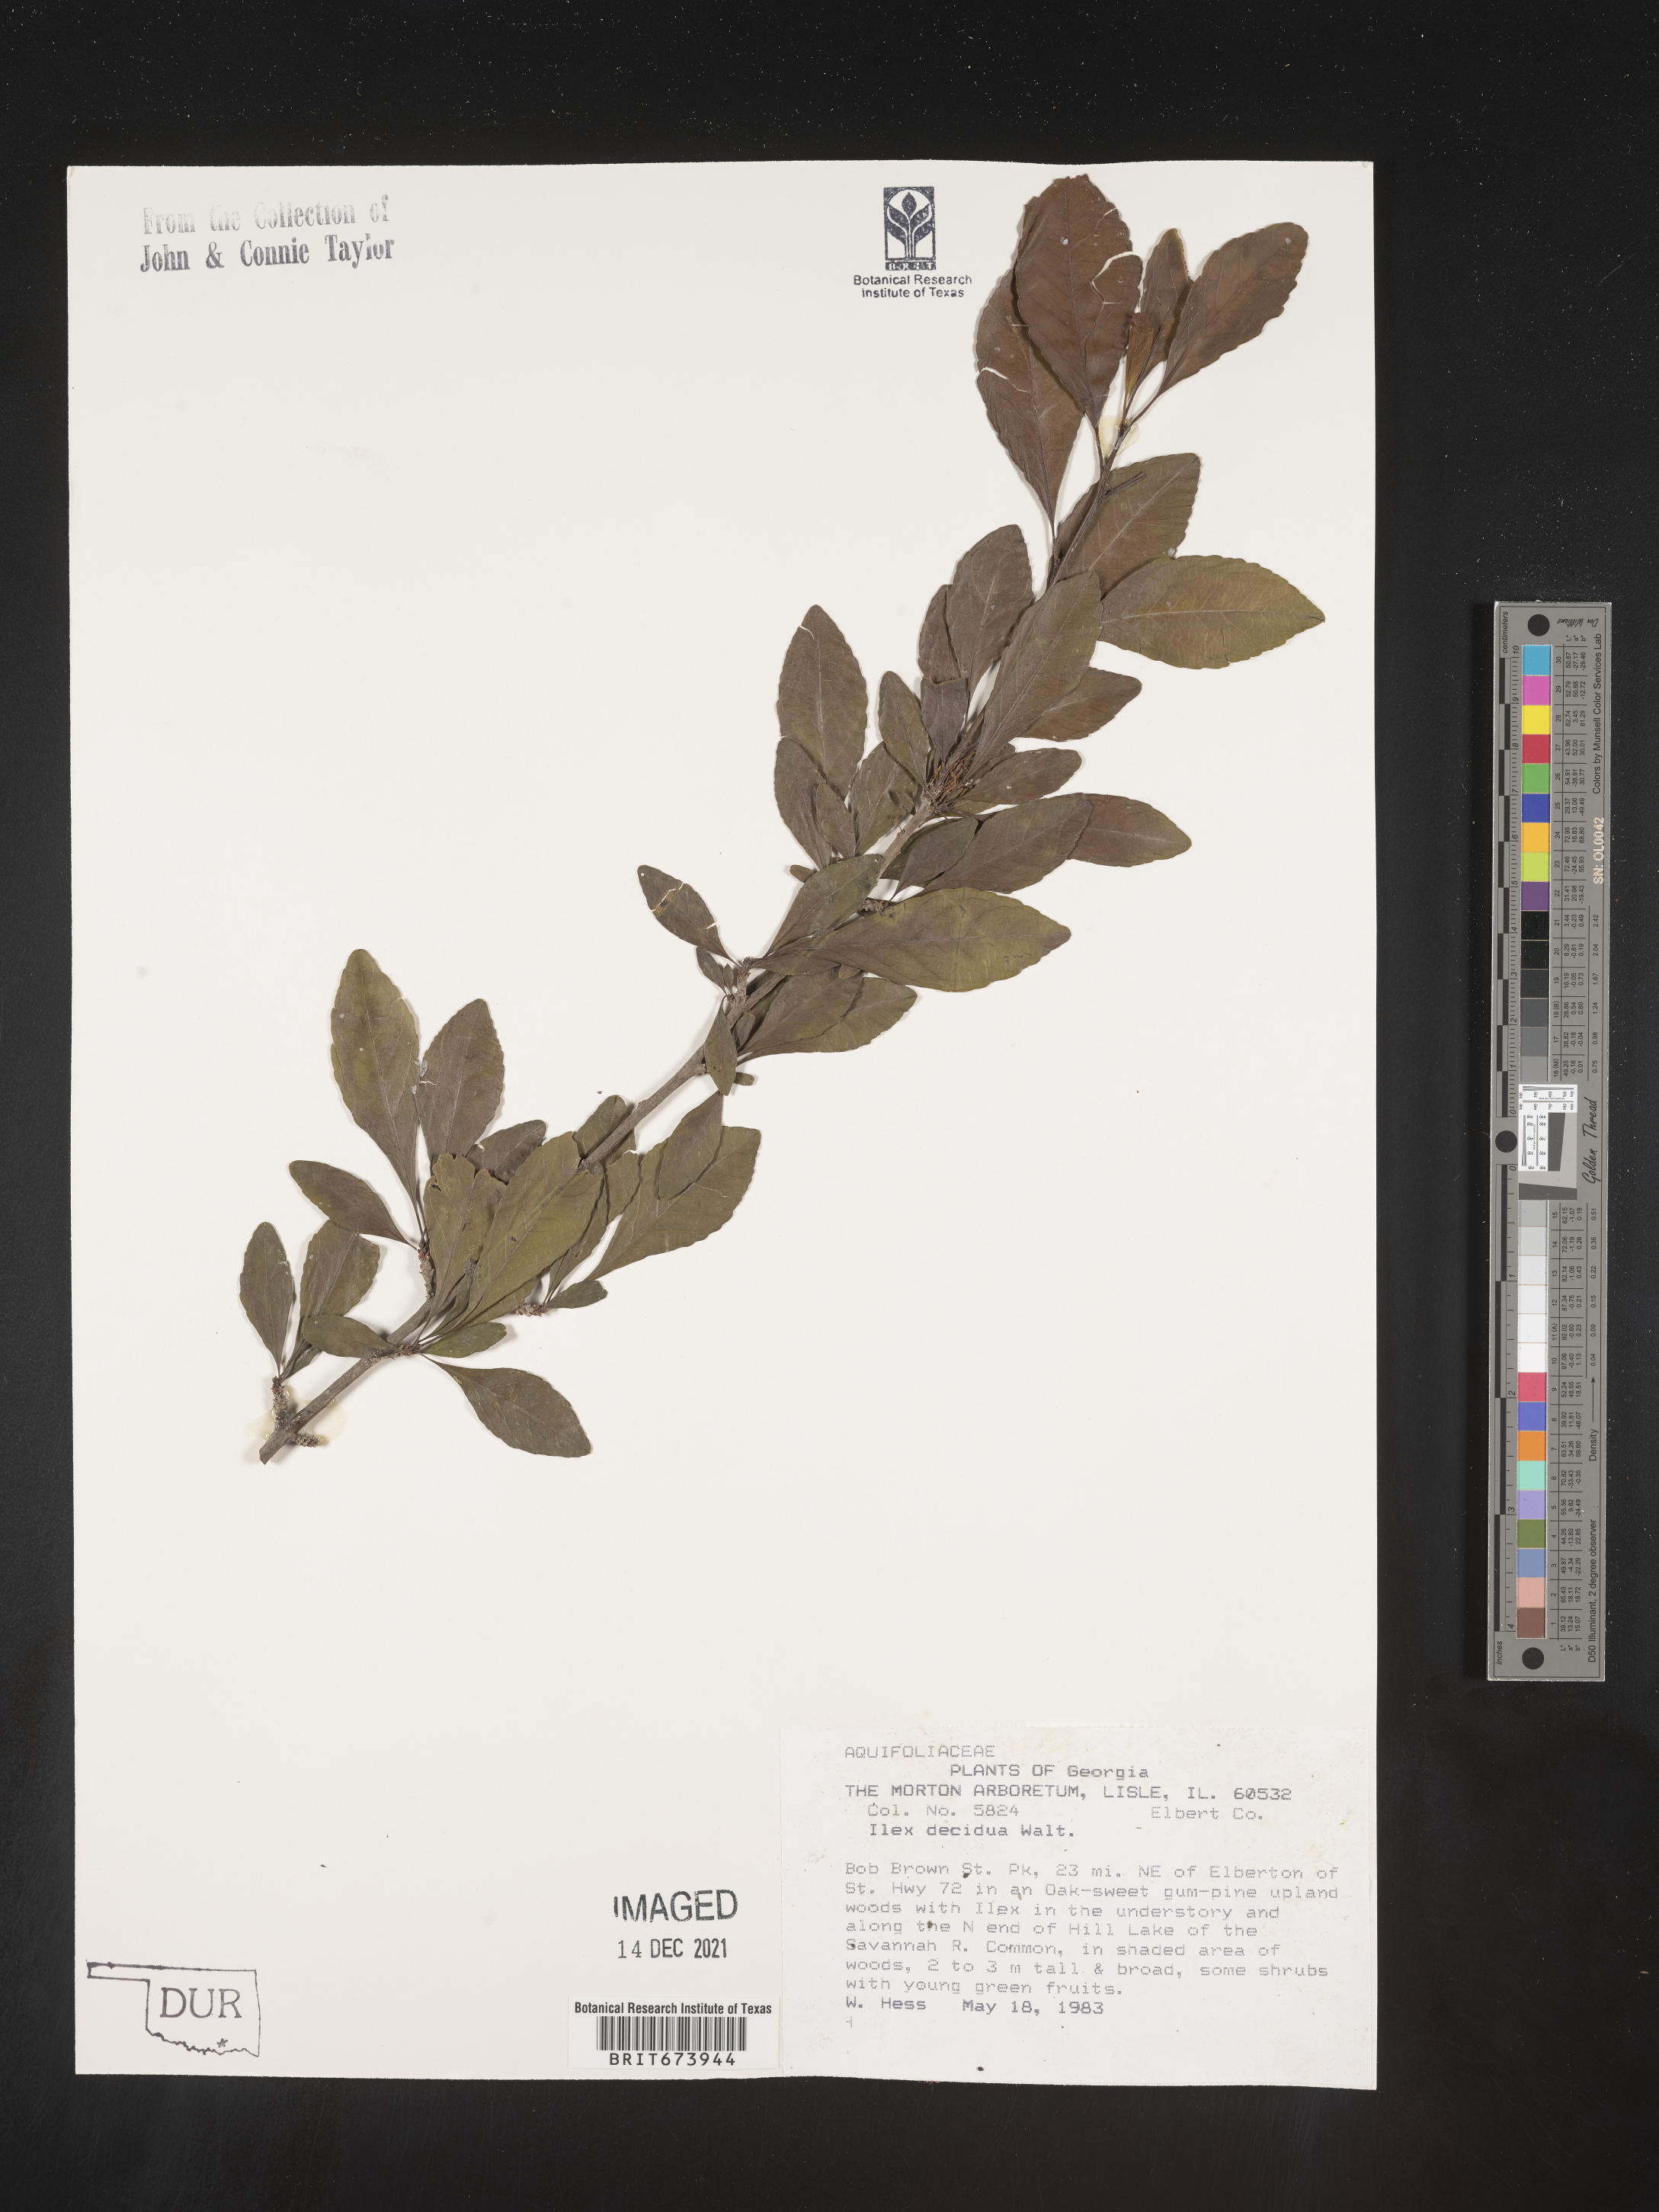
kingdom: Plantae
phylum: Tracheophyta
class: Magnoliopsida
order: Aquifoliales
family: Aquifoliaceae
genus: Ilex
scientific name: Ilex decidua
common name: Possum-haw
